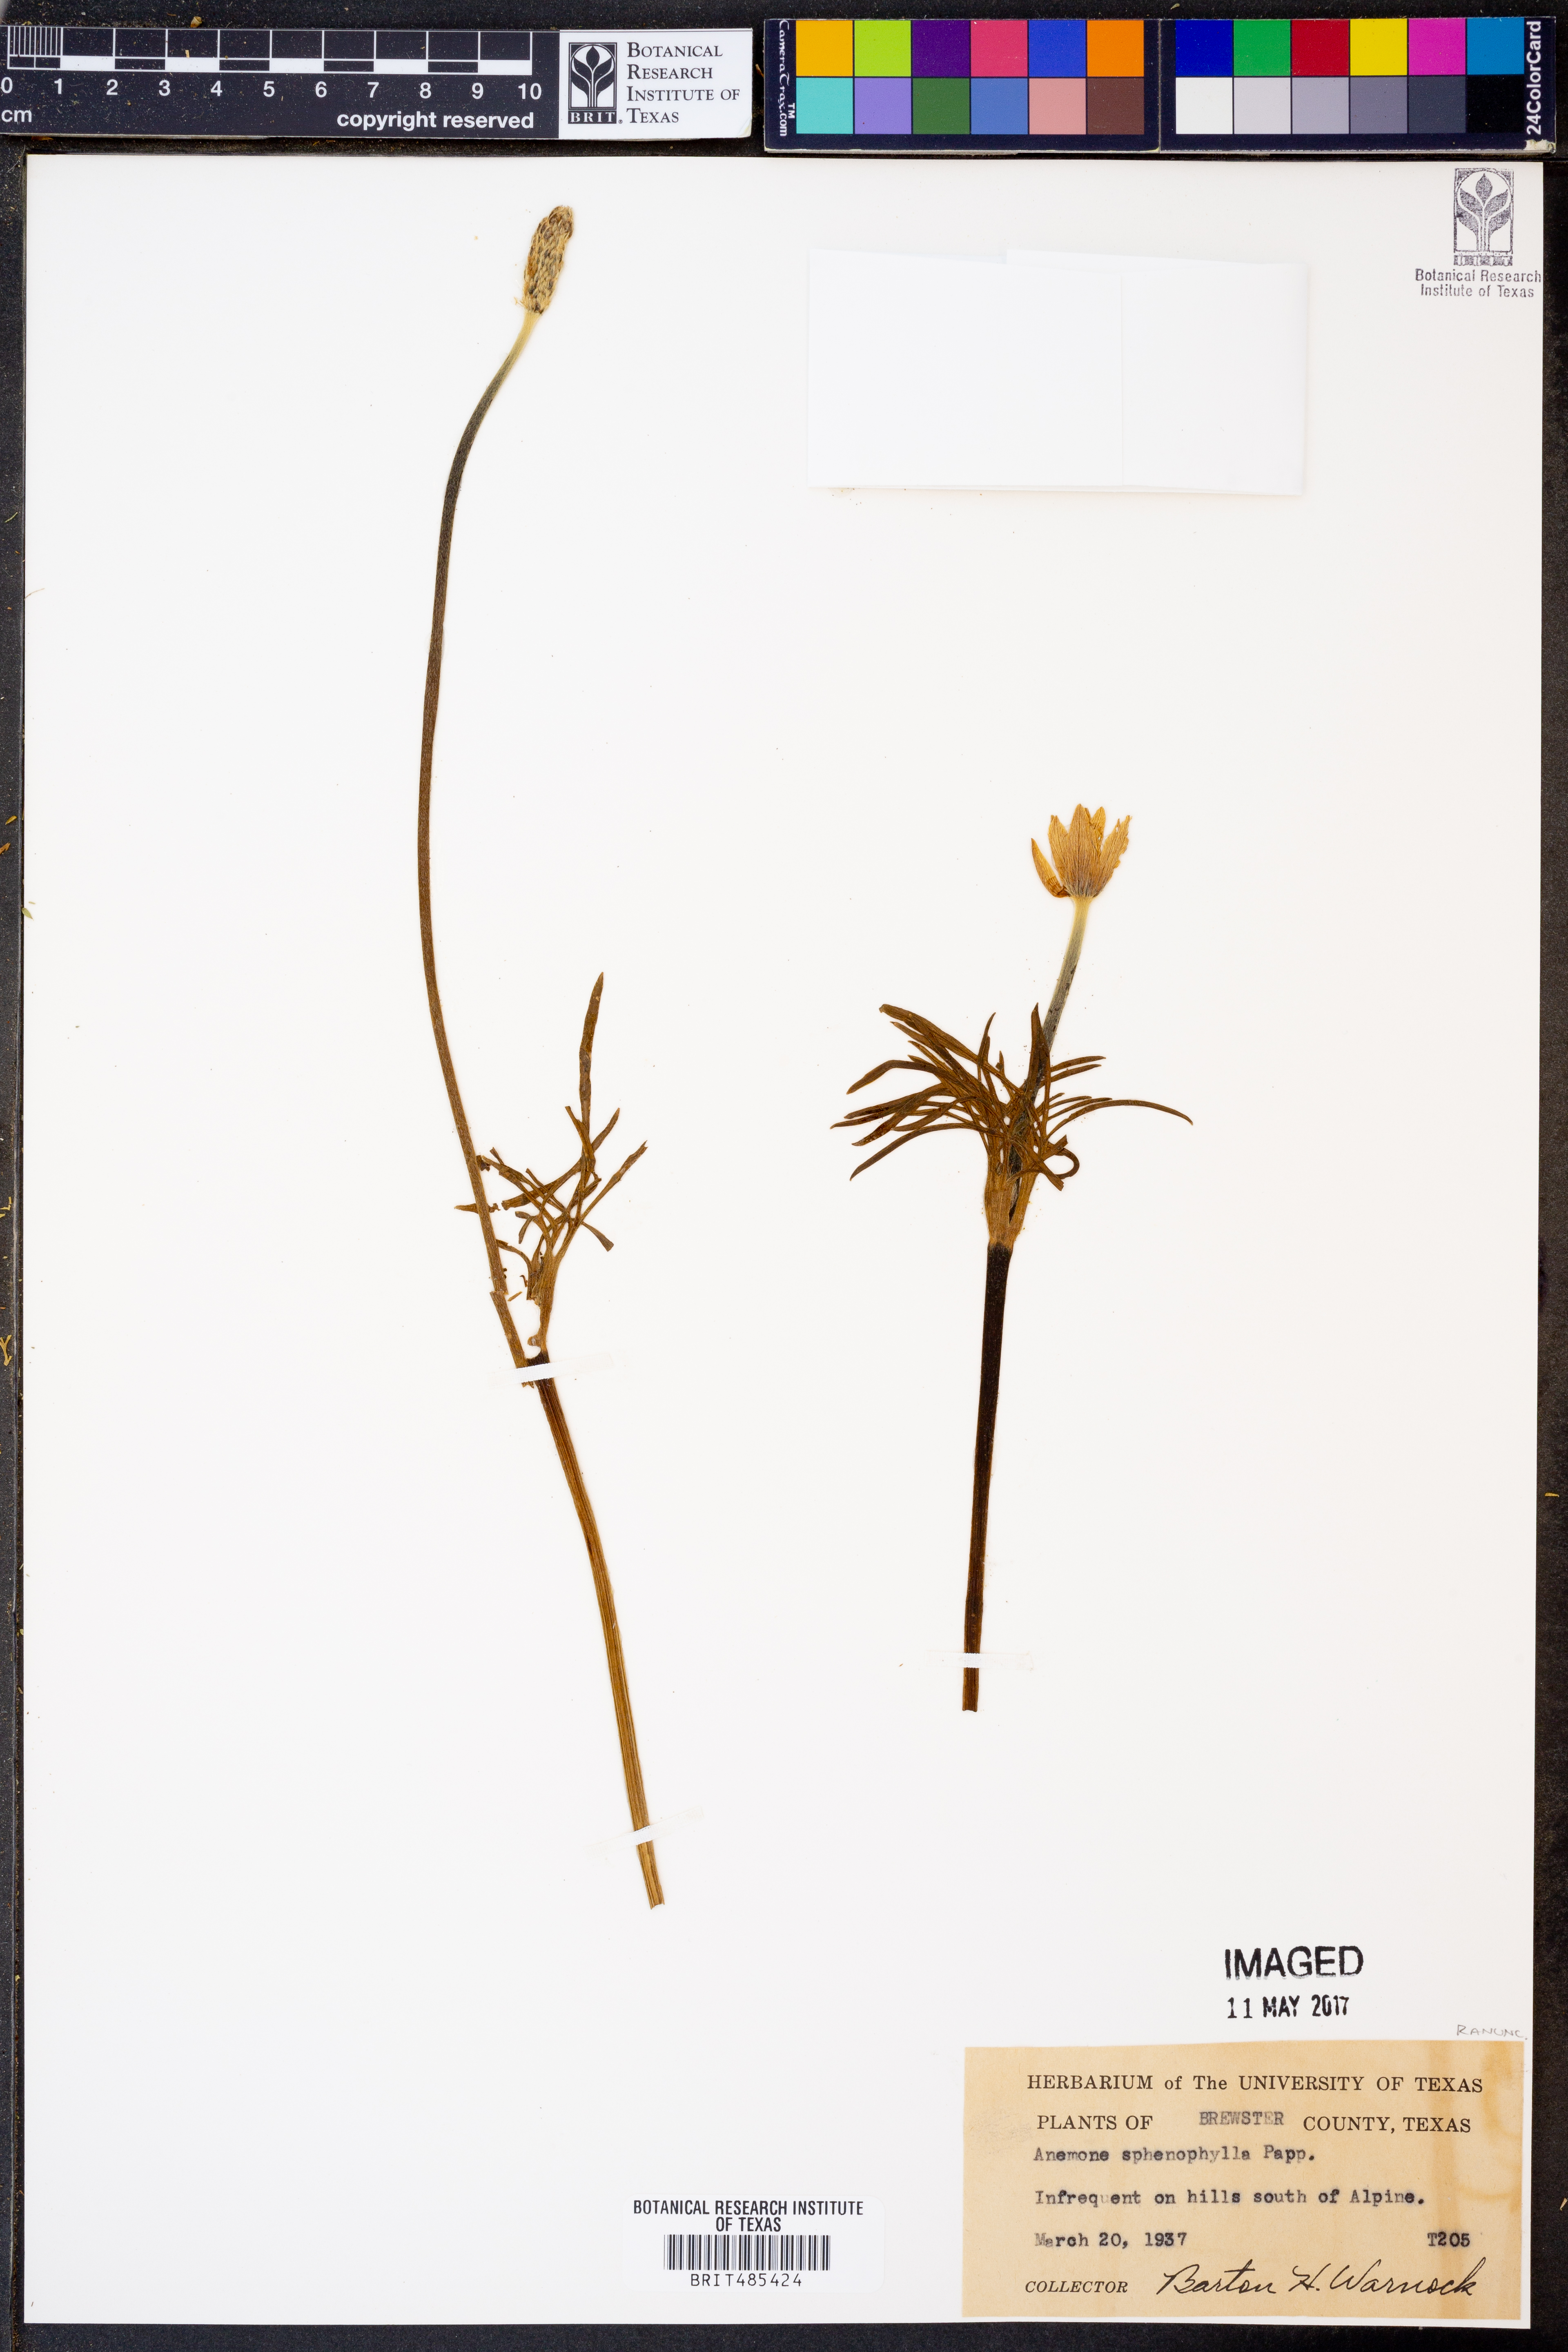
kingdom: Plantae
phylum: Tracheophyta
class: Magnoliopsida
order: Ranunculales
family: Ranunculaceae
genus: Anemone
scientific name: Anemone decapetala
